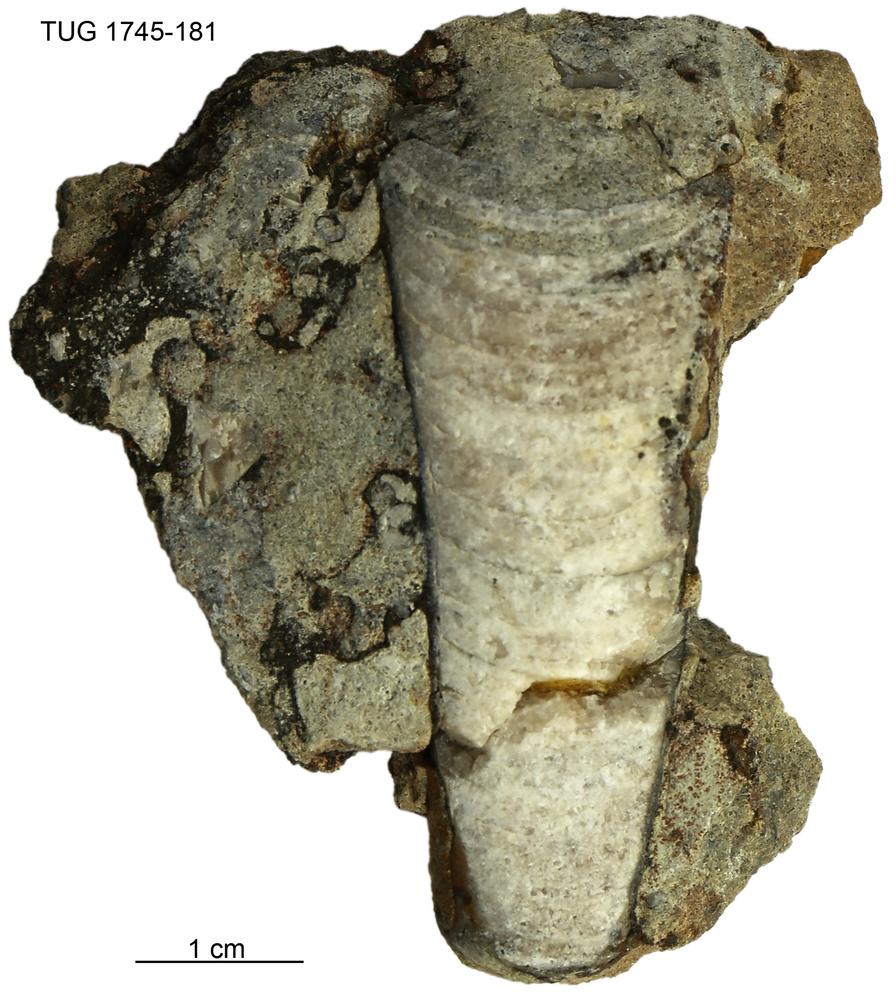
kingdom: Animalia
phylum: Mollusca
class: Cephalopoda
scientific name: Cephalopoda
